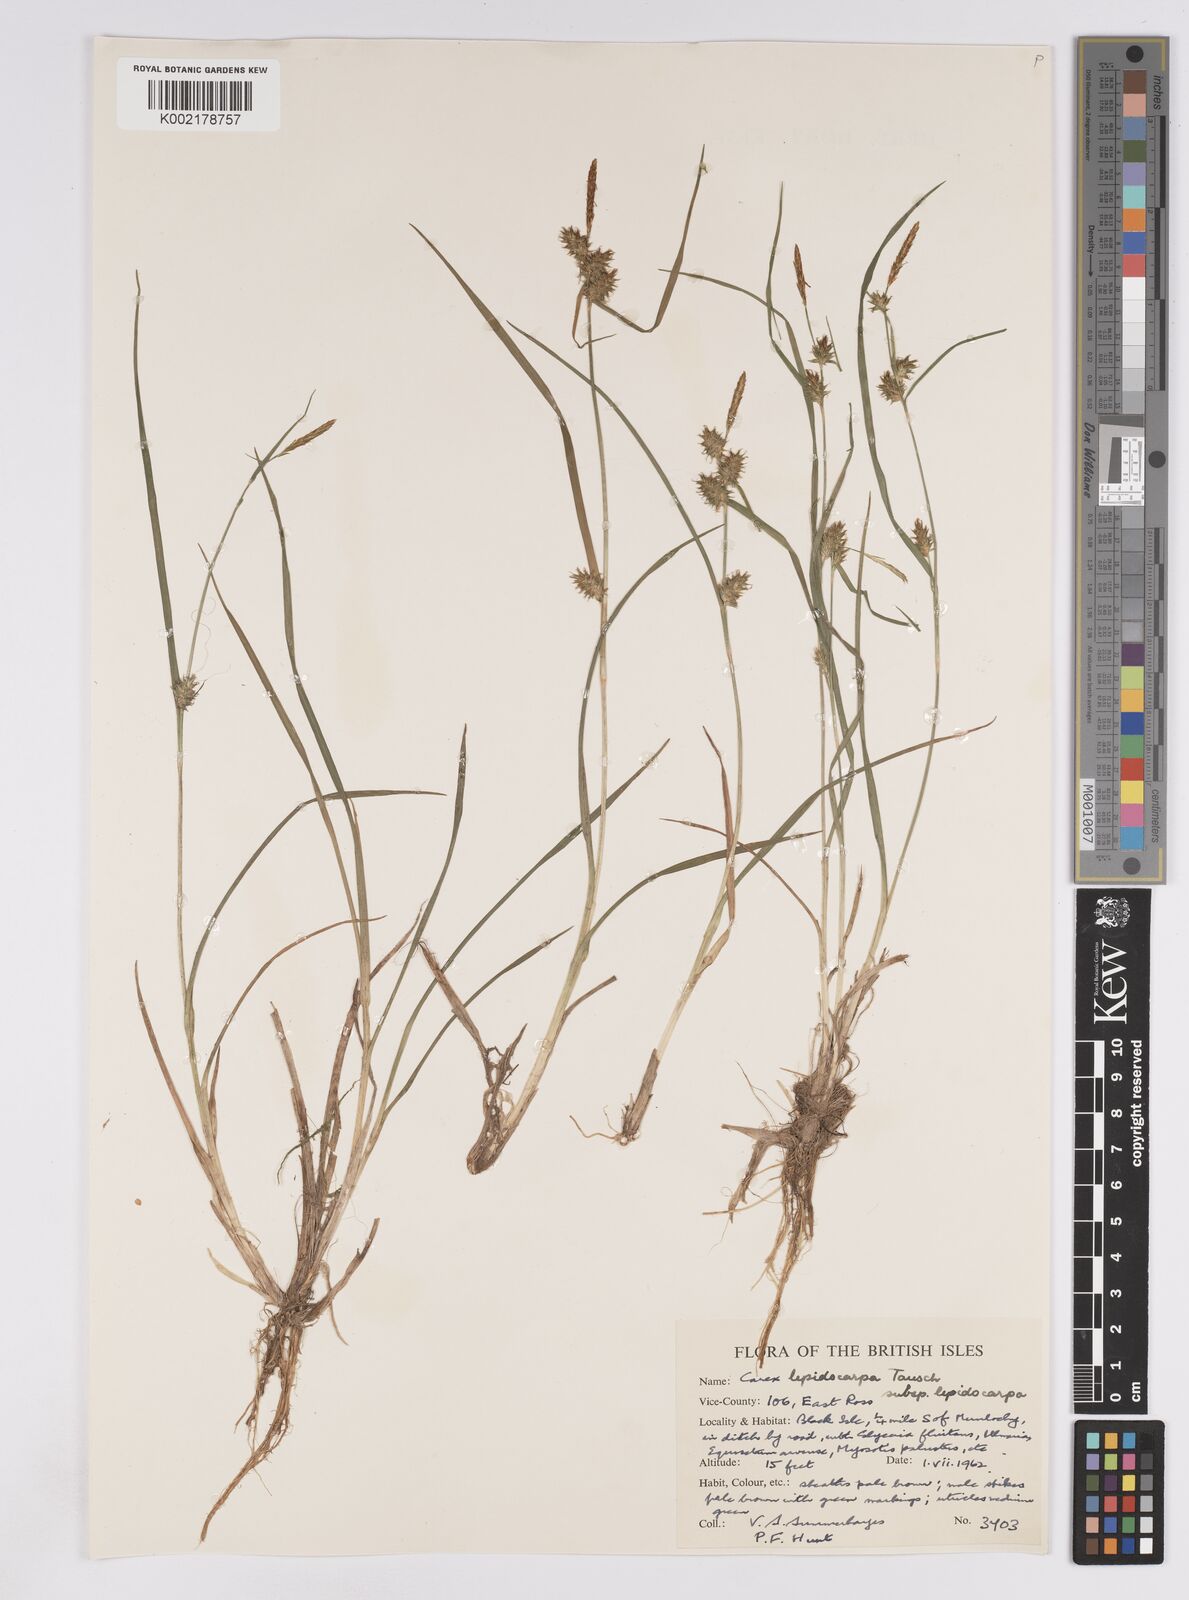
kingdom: Plantae
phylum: Tracheophyta
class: Liliopsida
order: Poales
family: Cyperaceae
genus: Carex
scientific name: Carex lepidocarpa
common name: Long-stalked yellow-sedge
